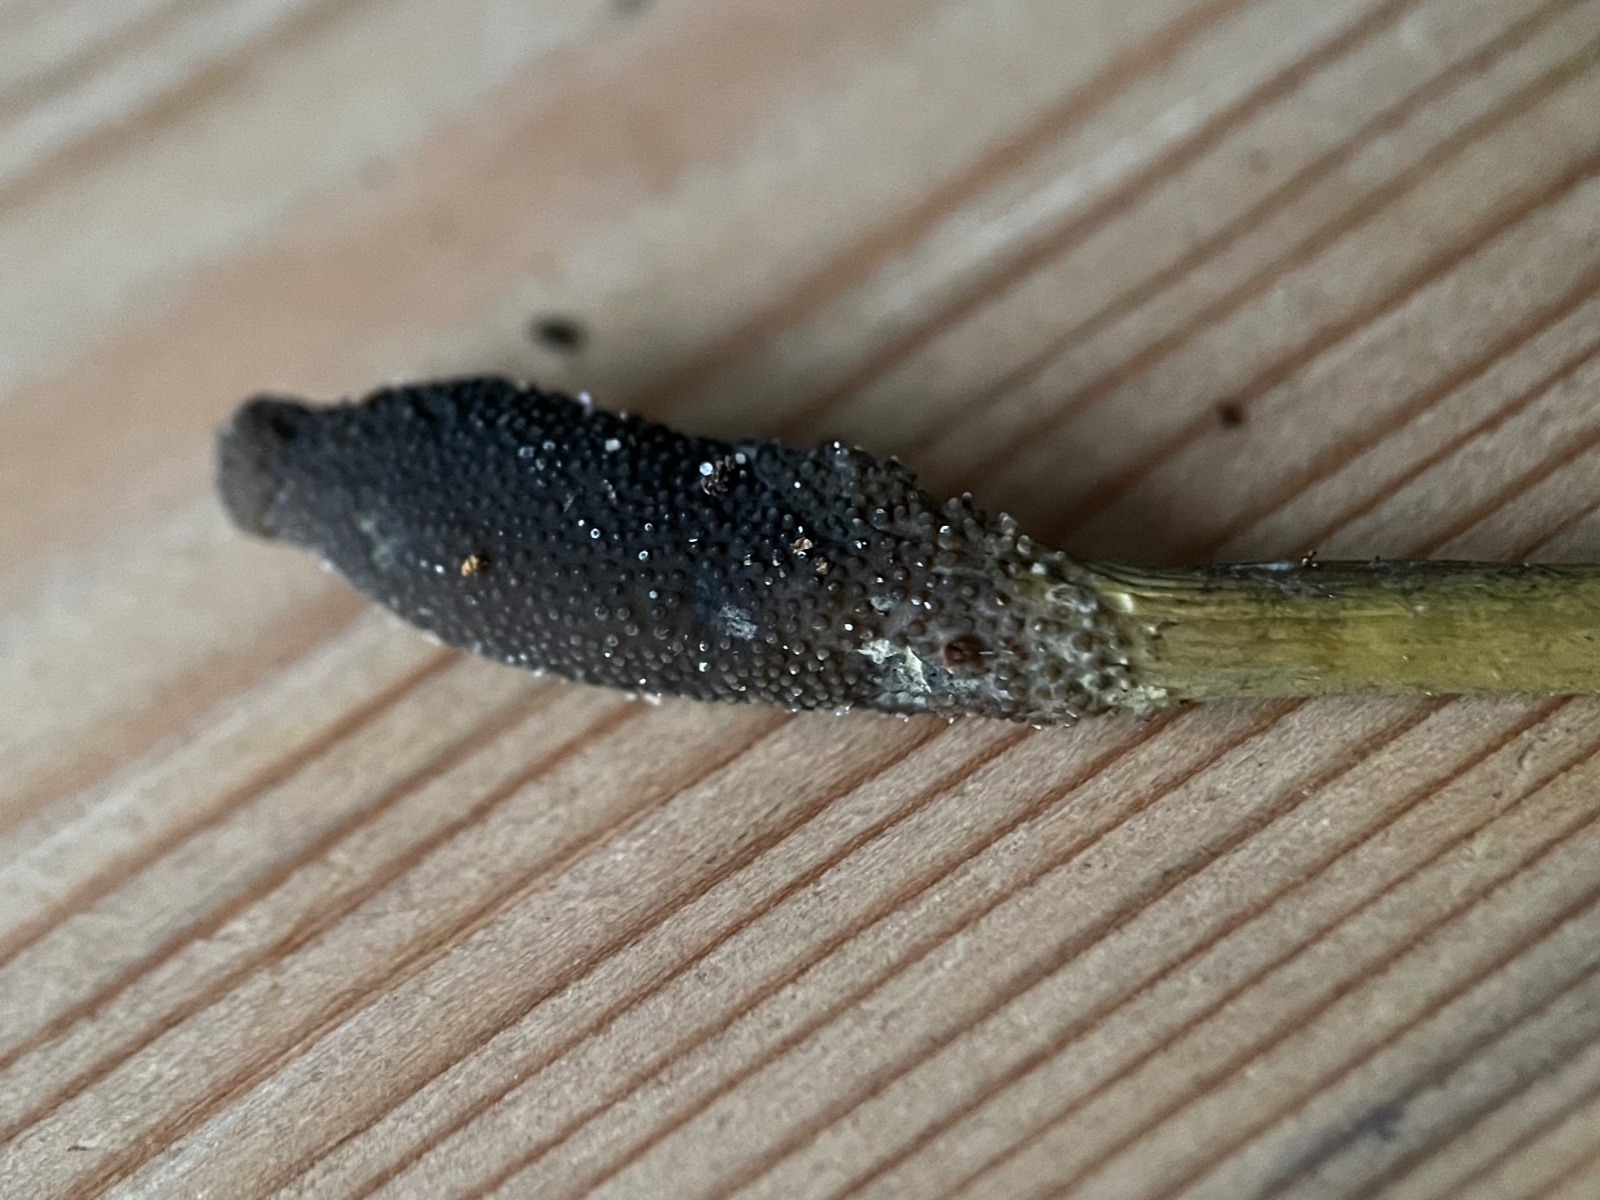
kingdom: Fungi
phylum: Ascomycota
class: Sordariomycetes
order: Hypocreales
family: Ophiocordycipitaceae
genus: Tolypocladium
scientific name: Tolypocladium ophioglossoides
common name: slank snyltekølle
